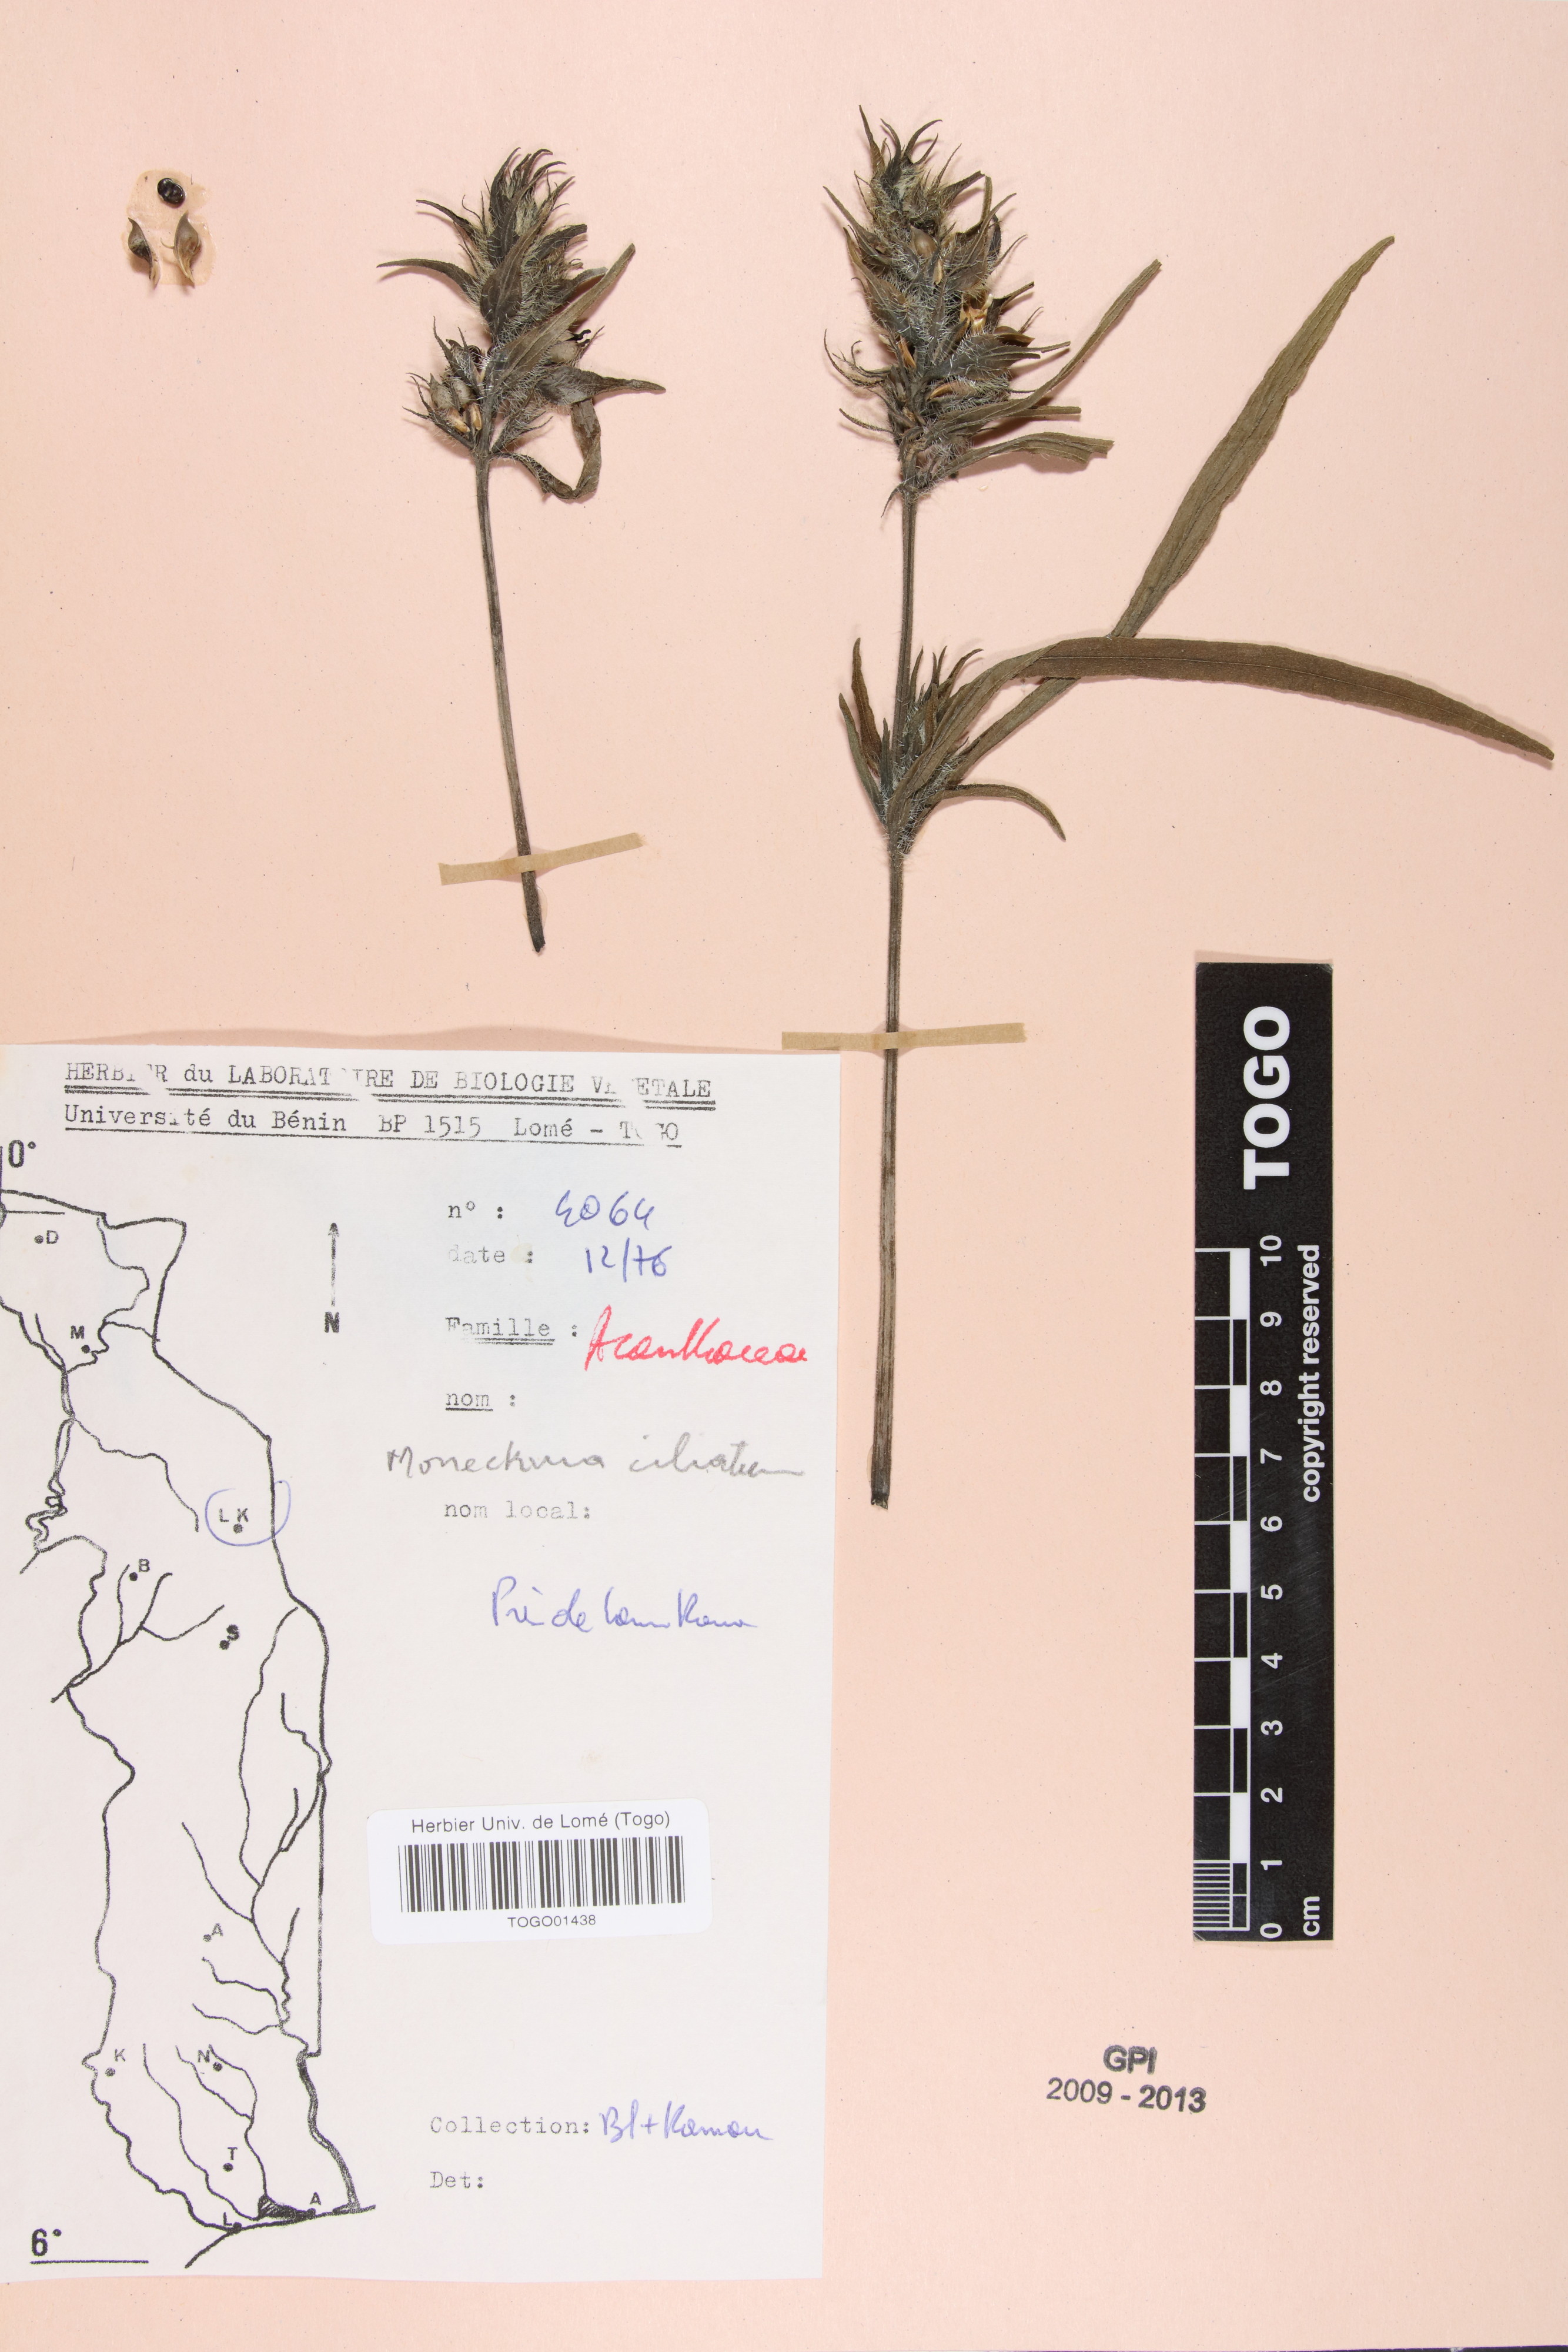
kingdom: Plantae
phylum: Tracheophyta
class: Magnoliopsida
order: Lamiales
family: Acanthaceae
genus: Pogonospermum
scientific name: Pogonospermum ciliare
